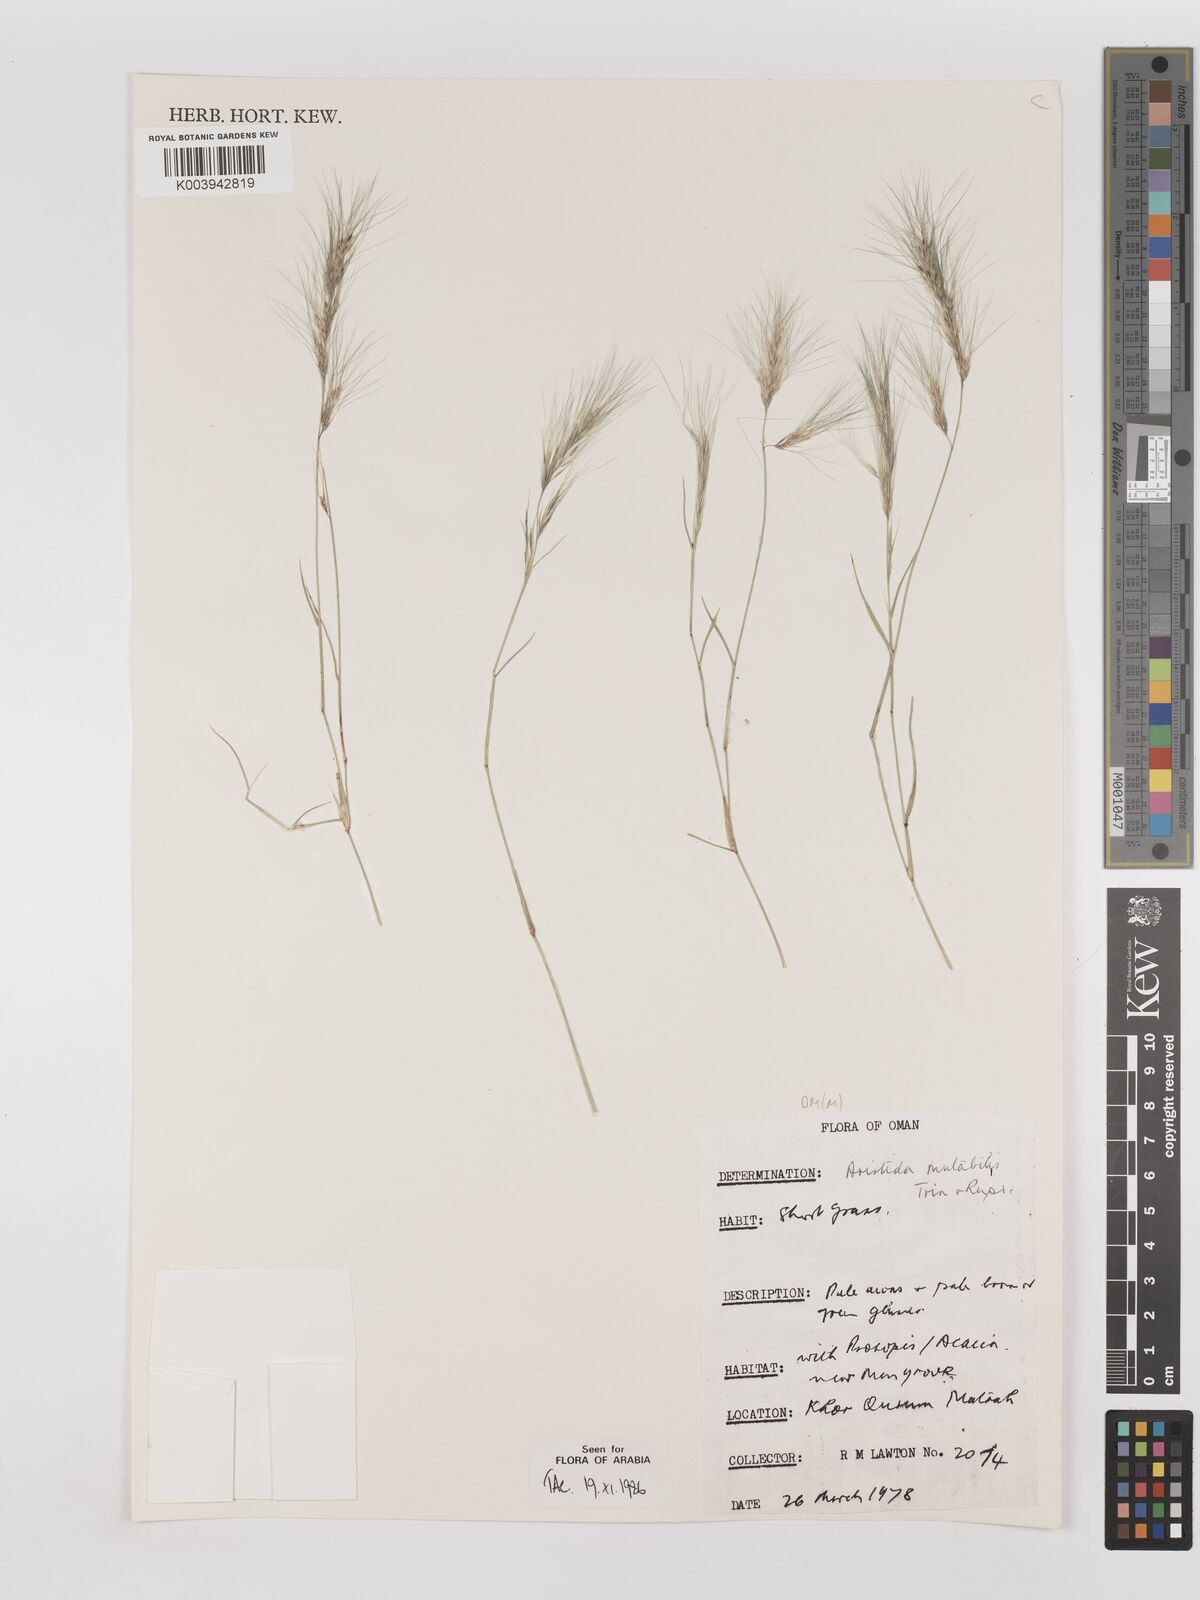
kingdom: Plantae
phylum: Tracheophyta
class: Liliopsida
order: Poales
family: Poaceae
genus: Aristida
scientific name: Aristida mutabilis
